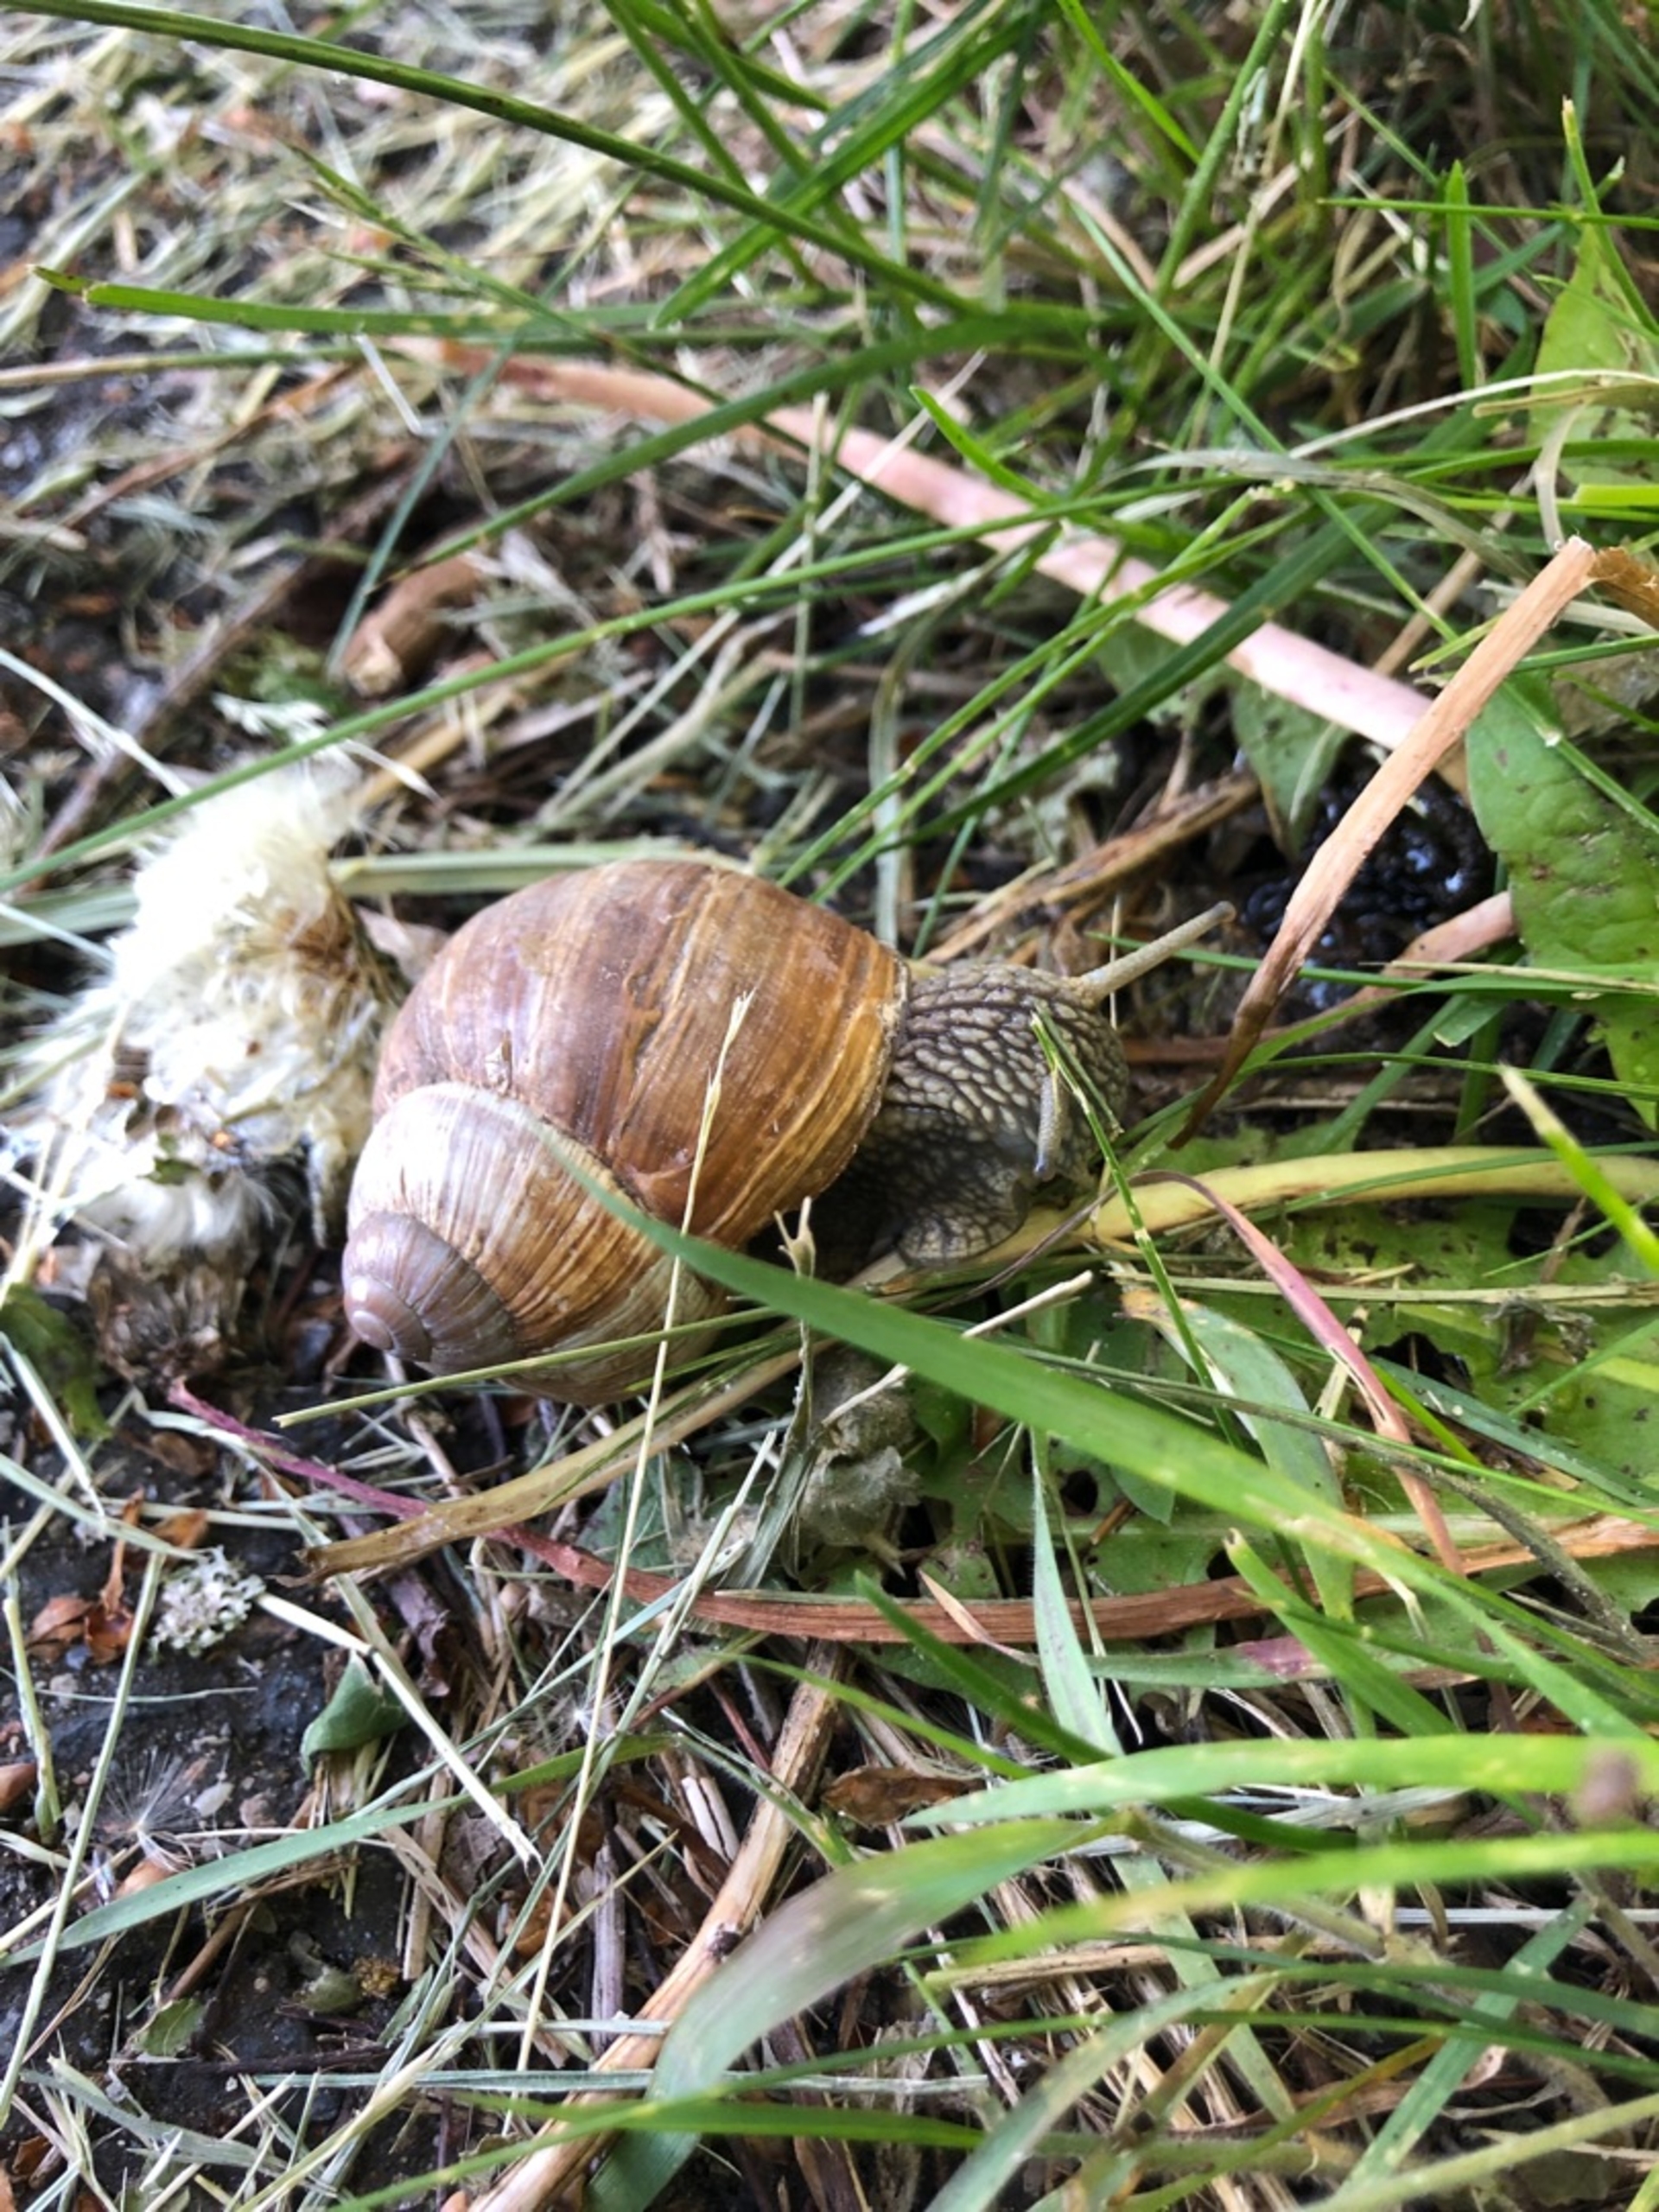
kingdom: Animalia
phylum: Mollusca
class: Gastropoda
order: Stylommatophora
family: Helicidae
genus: Helix
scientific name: Helix pomatia
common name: Vinbjergsnegl
